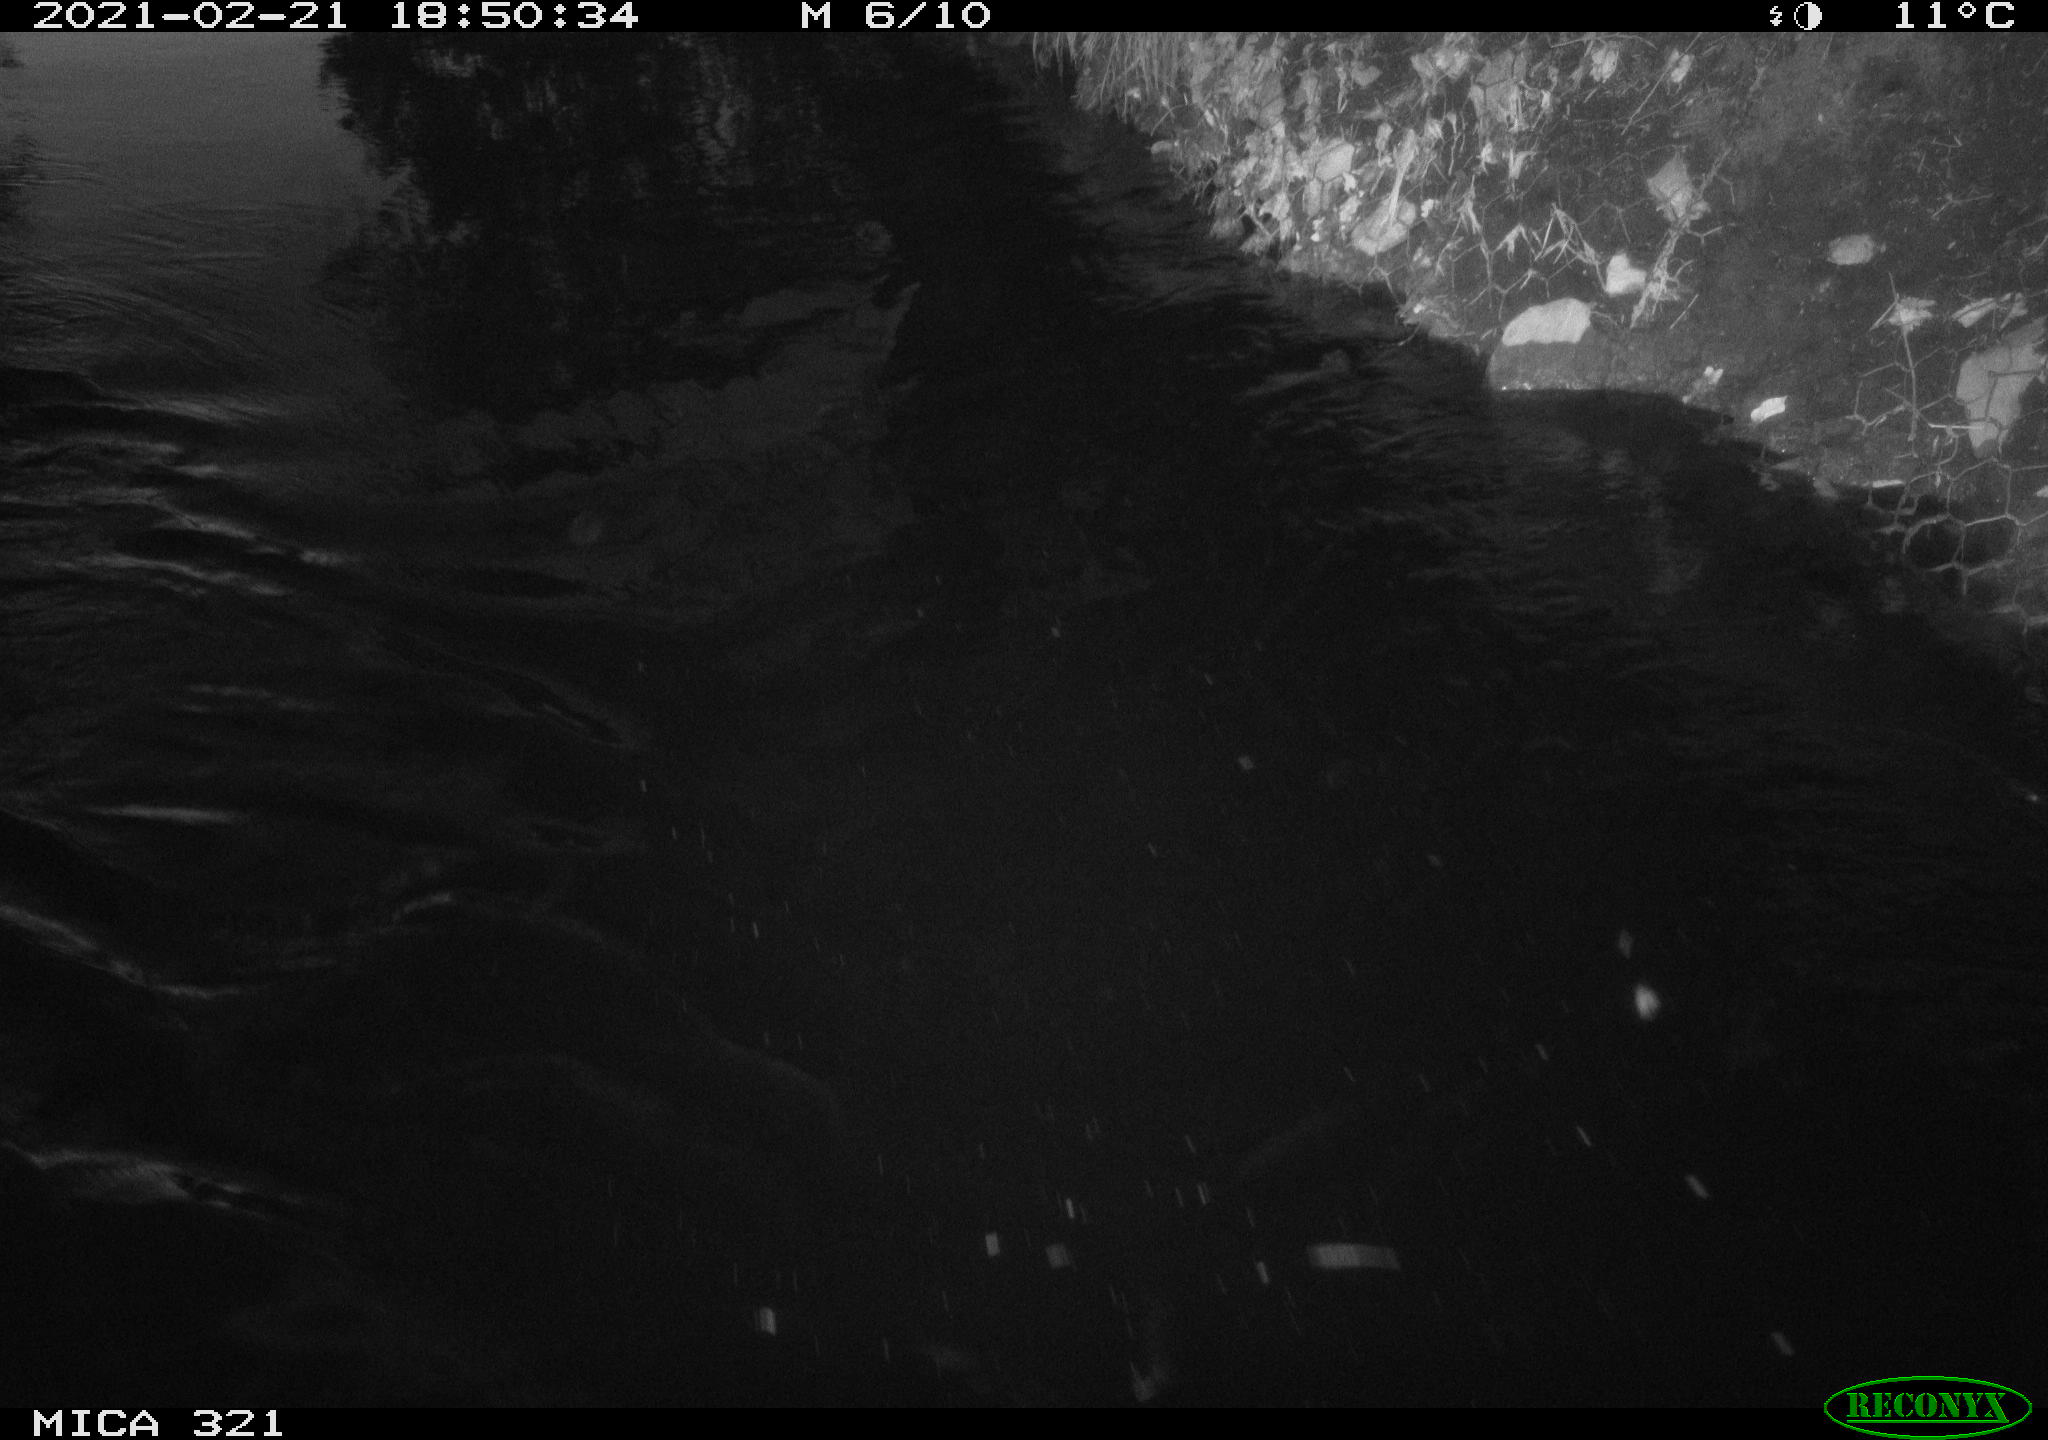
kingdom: Animalia
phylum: Chordata
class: Aves
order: Anseriformes
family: Anatidae
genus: Anas
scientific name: Anas platyrhynchos
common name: Mallard
